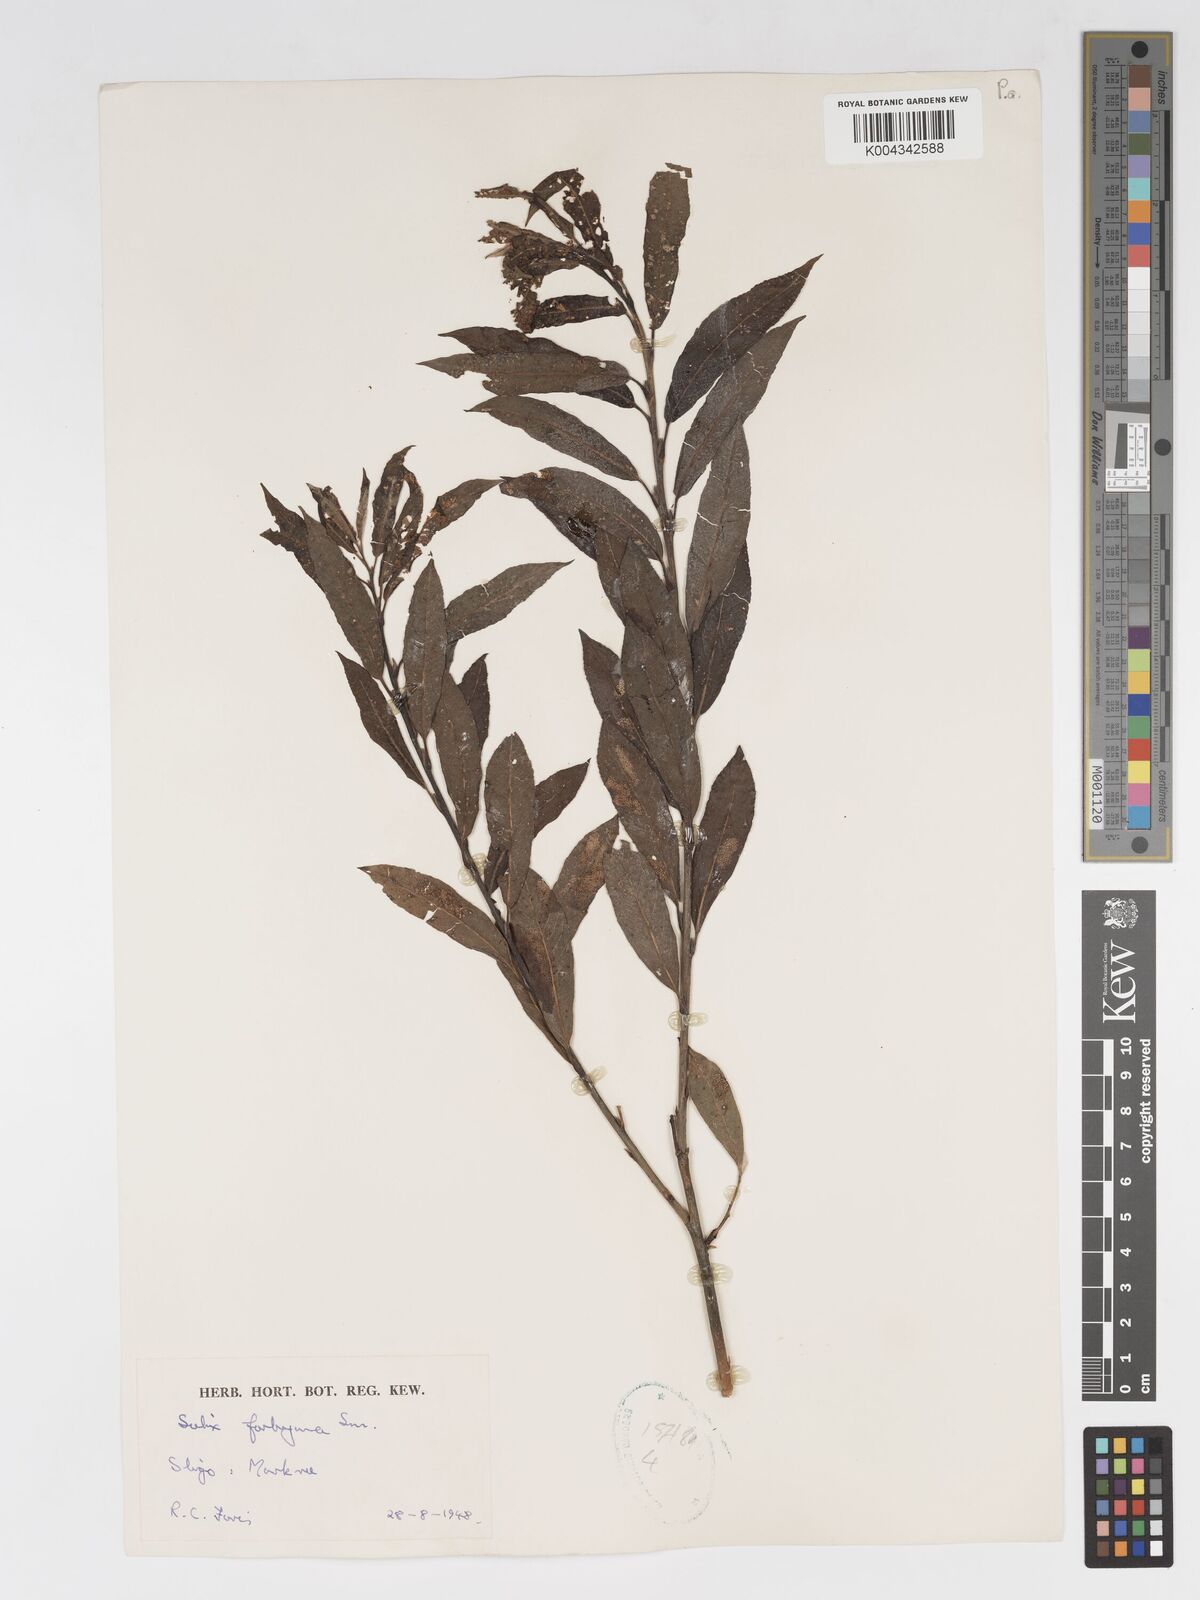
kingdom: Plantae
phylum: Tracheophyta
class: Magnoliopsida
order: Malpighiales
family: Salicaceae
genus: Salix
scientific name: Salix cinerea
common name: Common sallow
